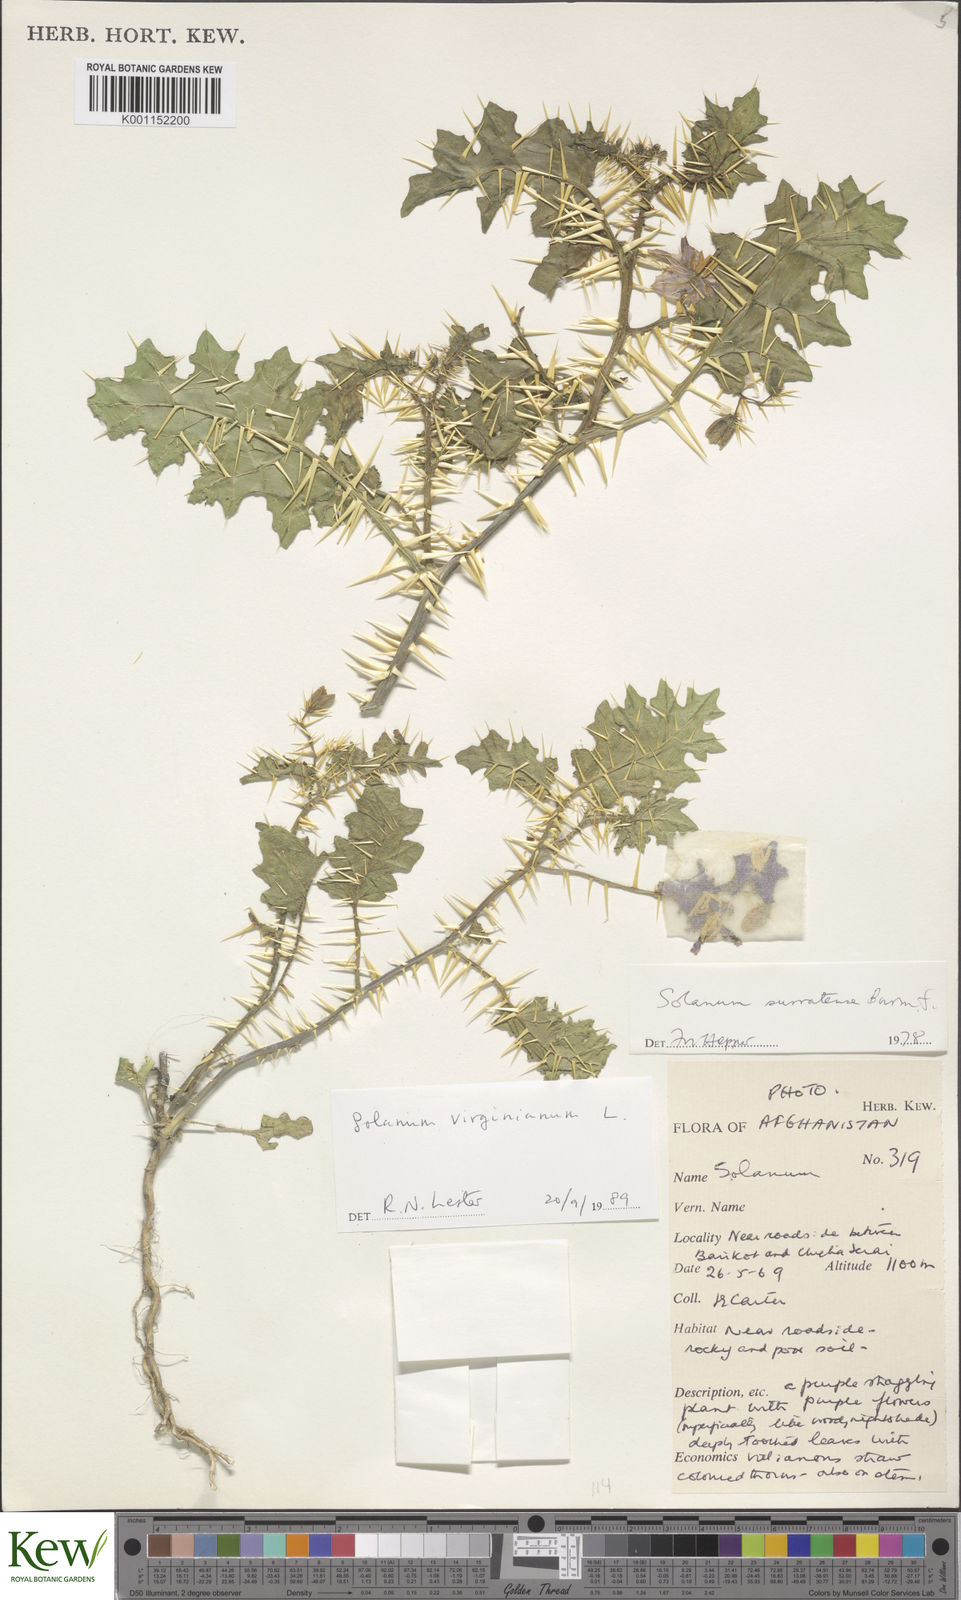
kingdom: Plantae
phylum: Tracheophyta
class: Magnoliopsida
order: Solanales
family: Solanaceae
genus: Solanum
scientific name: Solanum virginianum
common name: Surattense nightshade
